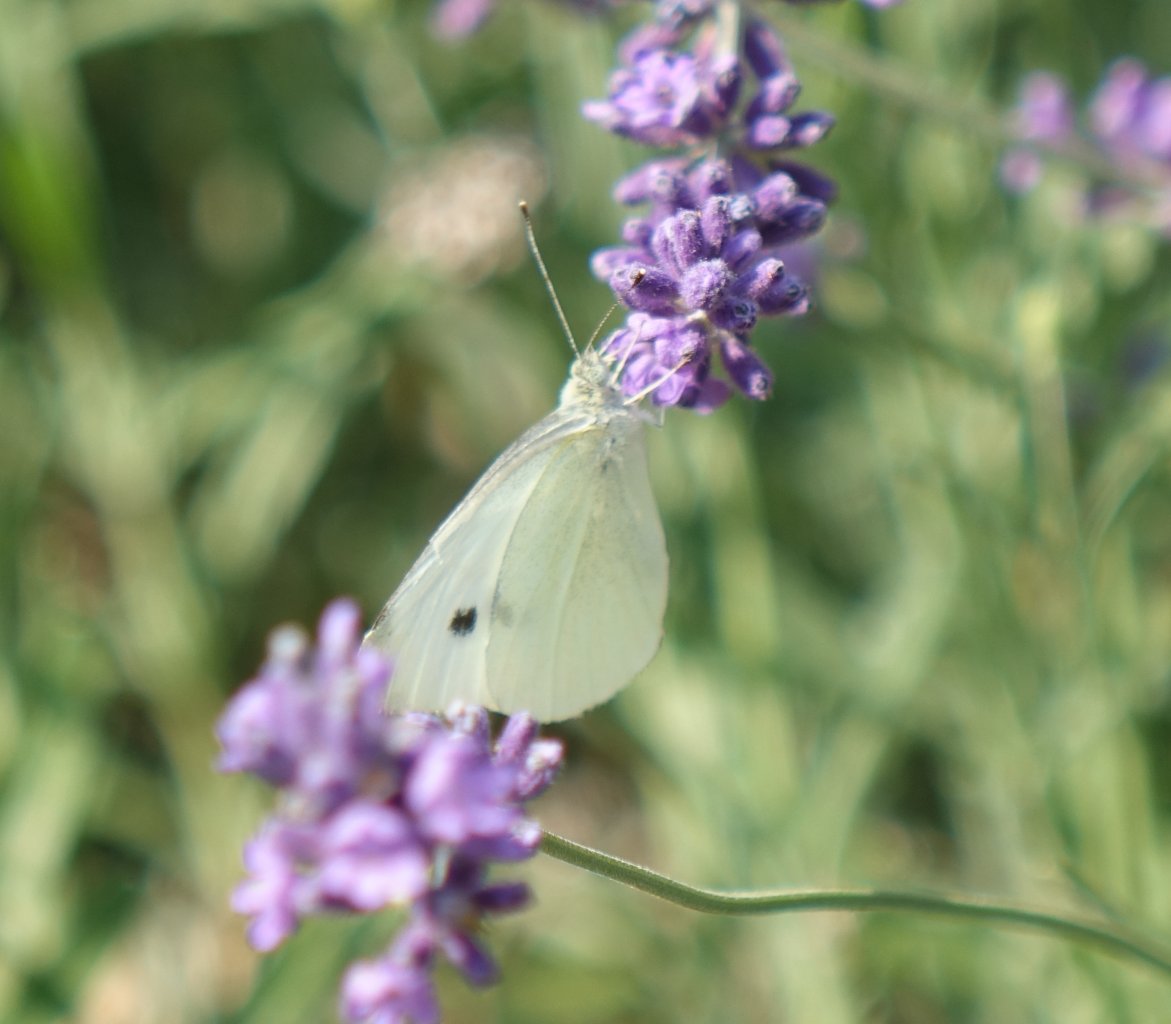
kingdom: Animalia
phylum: Arthropoda
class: Insecta
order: Lepidoptera
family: Pieridae
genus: Pieris
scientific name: Pieris rapae
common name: Cabbage White
